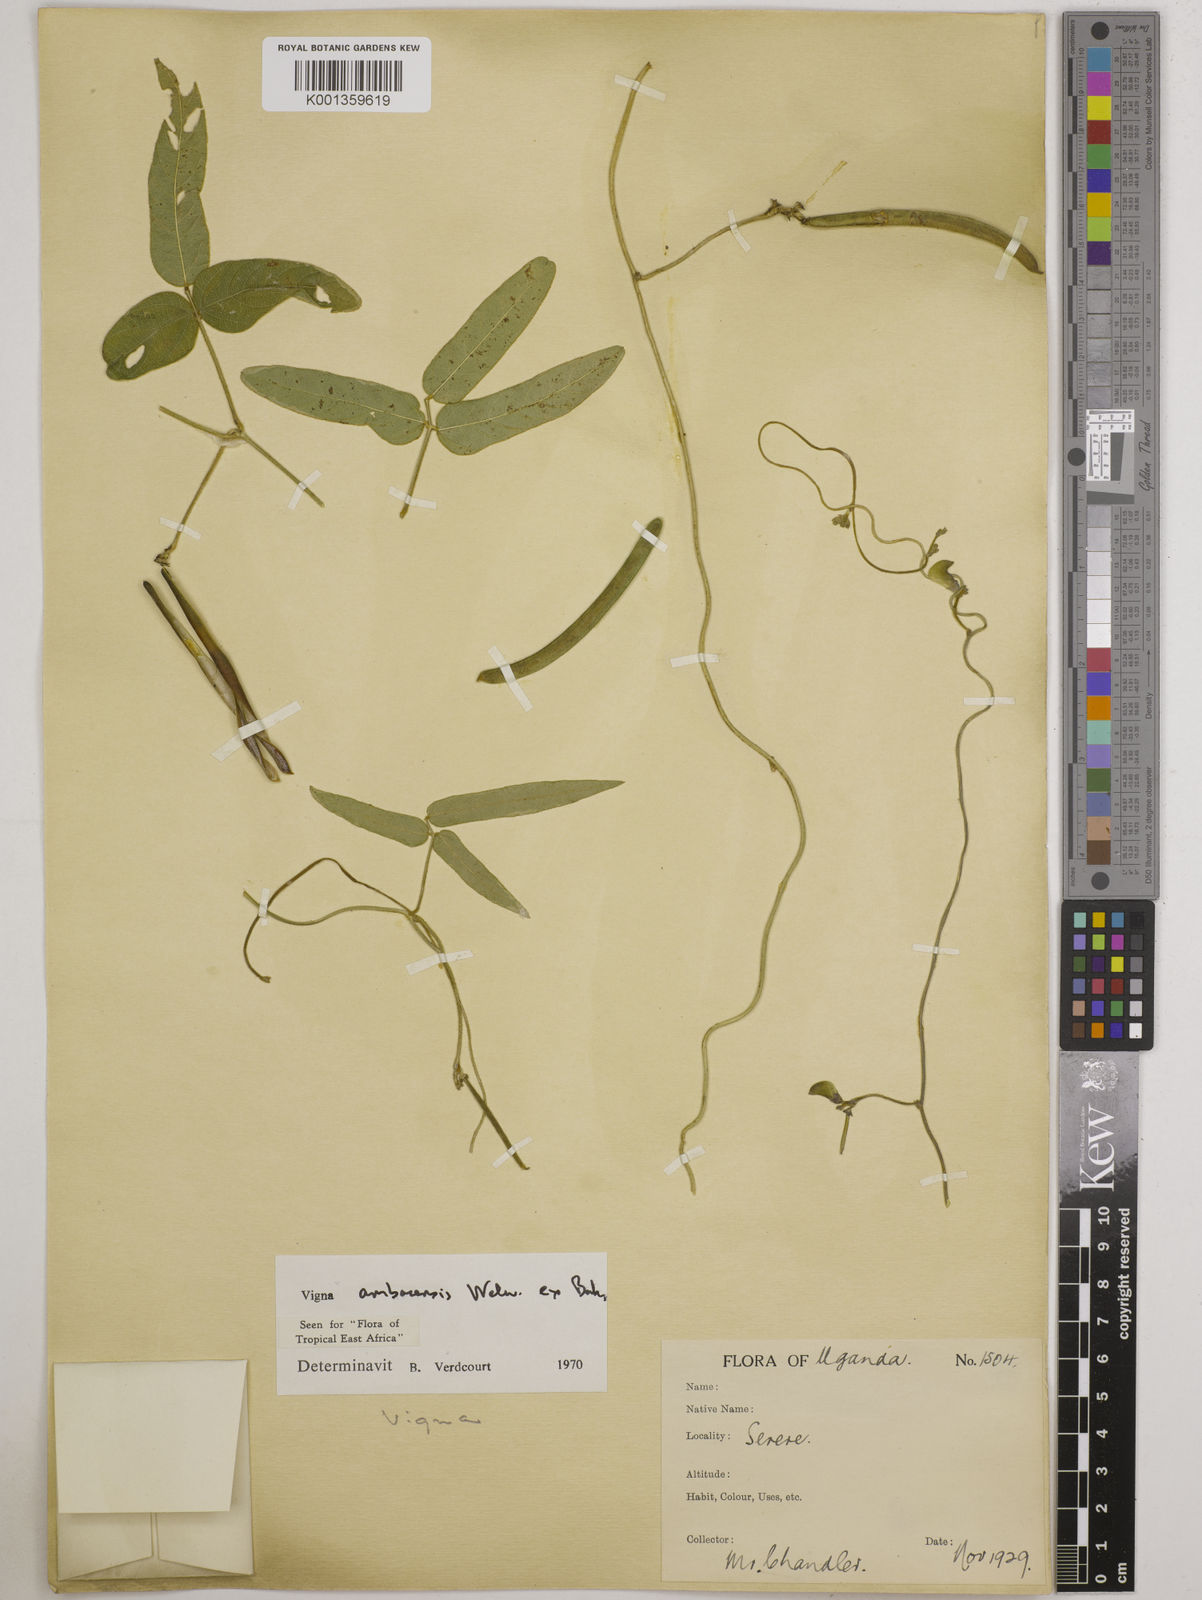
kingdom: Plantae
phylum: Tracheophyta
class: Magnoliopsida
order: Fabales
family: Fabaceae
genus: Vigna
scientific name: Vigna ambacensis
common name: Tsarkiyan zomo
